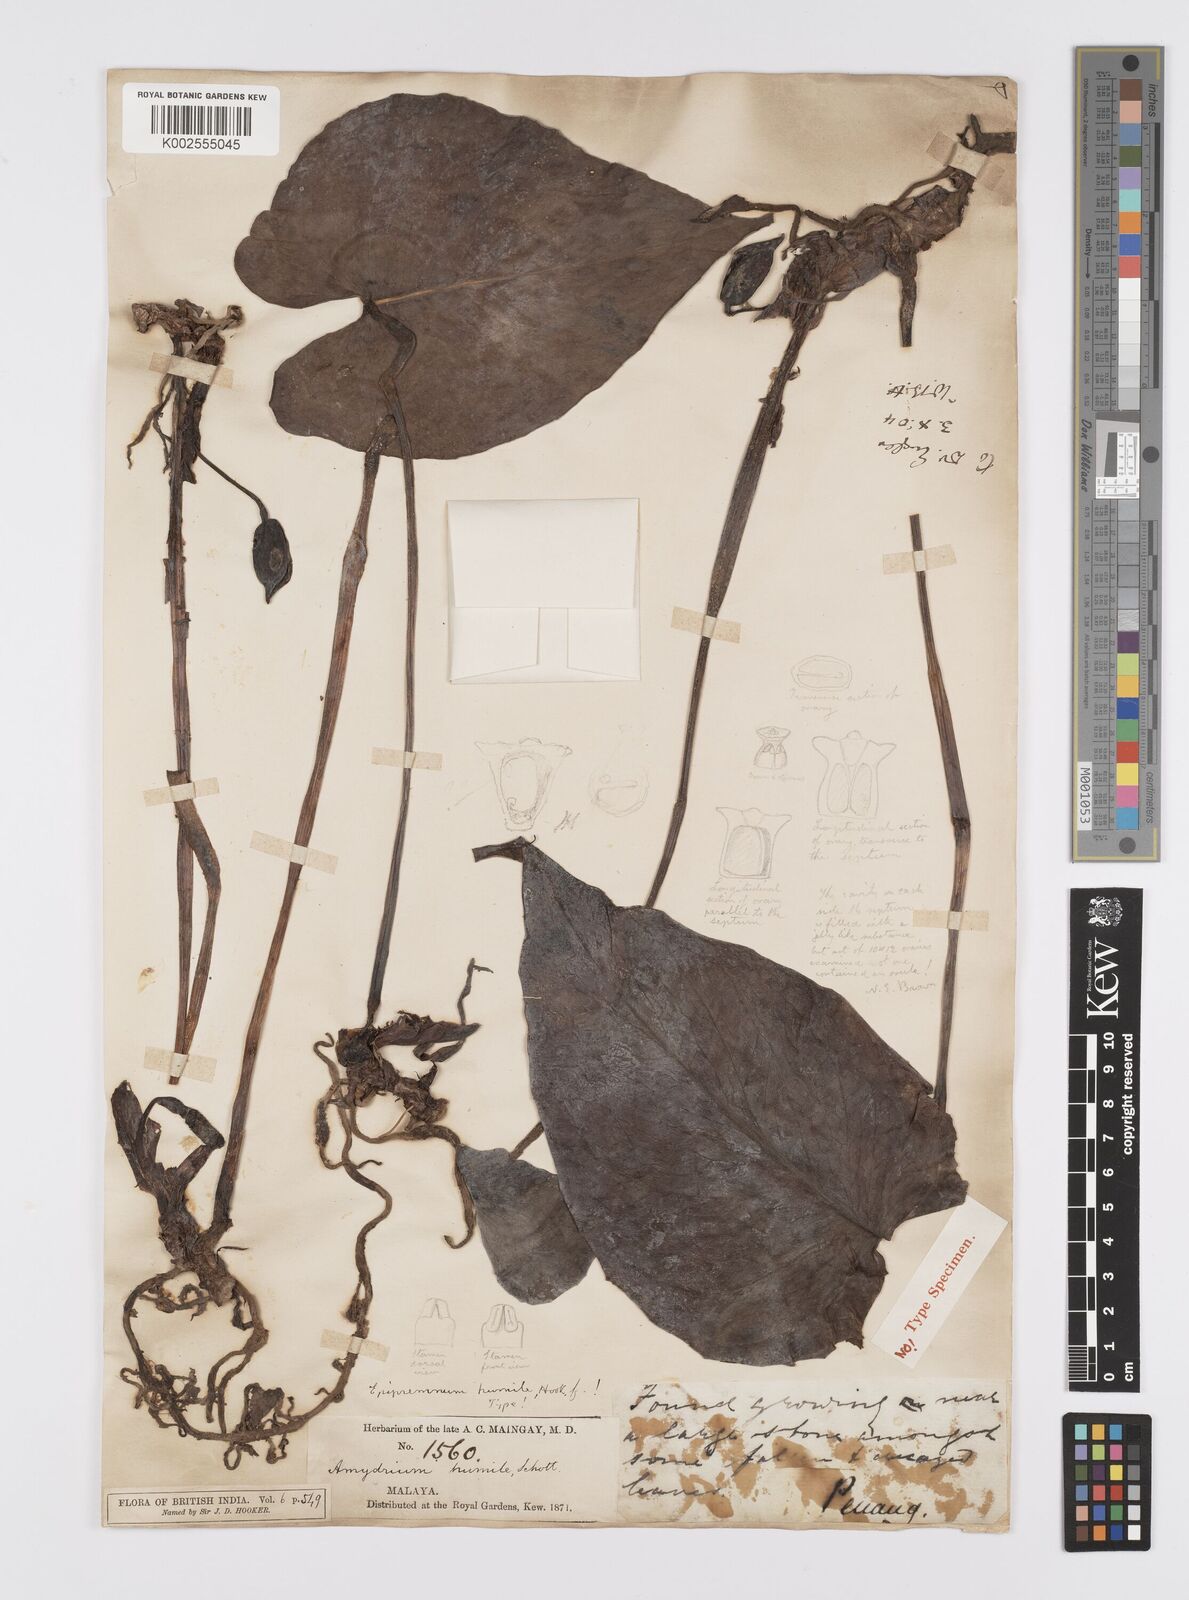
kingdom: Plantae
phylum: Tracheophyta
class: Liliopsida
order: Alismatales
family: Araceae
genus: Amydrium
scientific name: Amydrium humile
